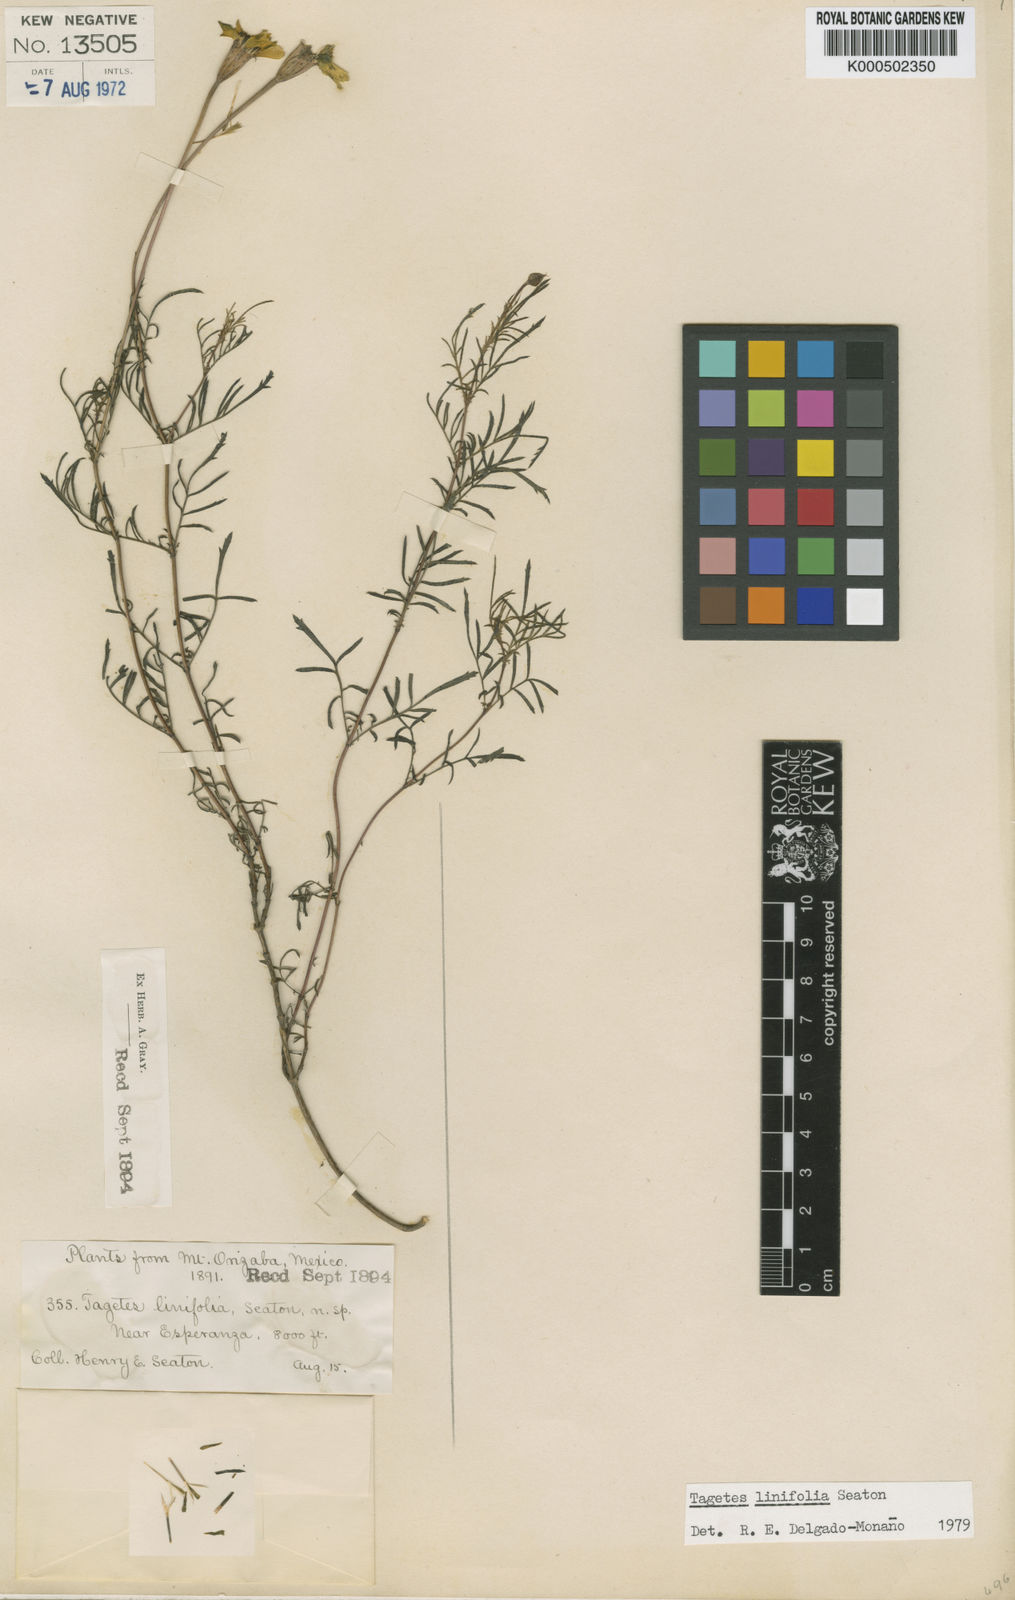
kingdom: Plantae
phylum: Tracheophyta
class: Magnoliopsida
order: Asterales
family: Asteraceae
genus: Tagetes
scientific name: Tagetes linifolia
